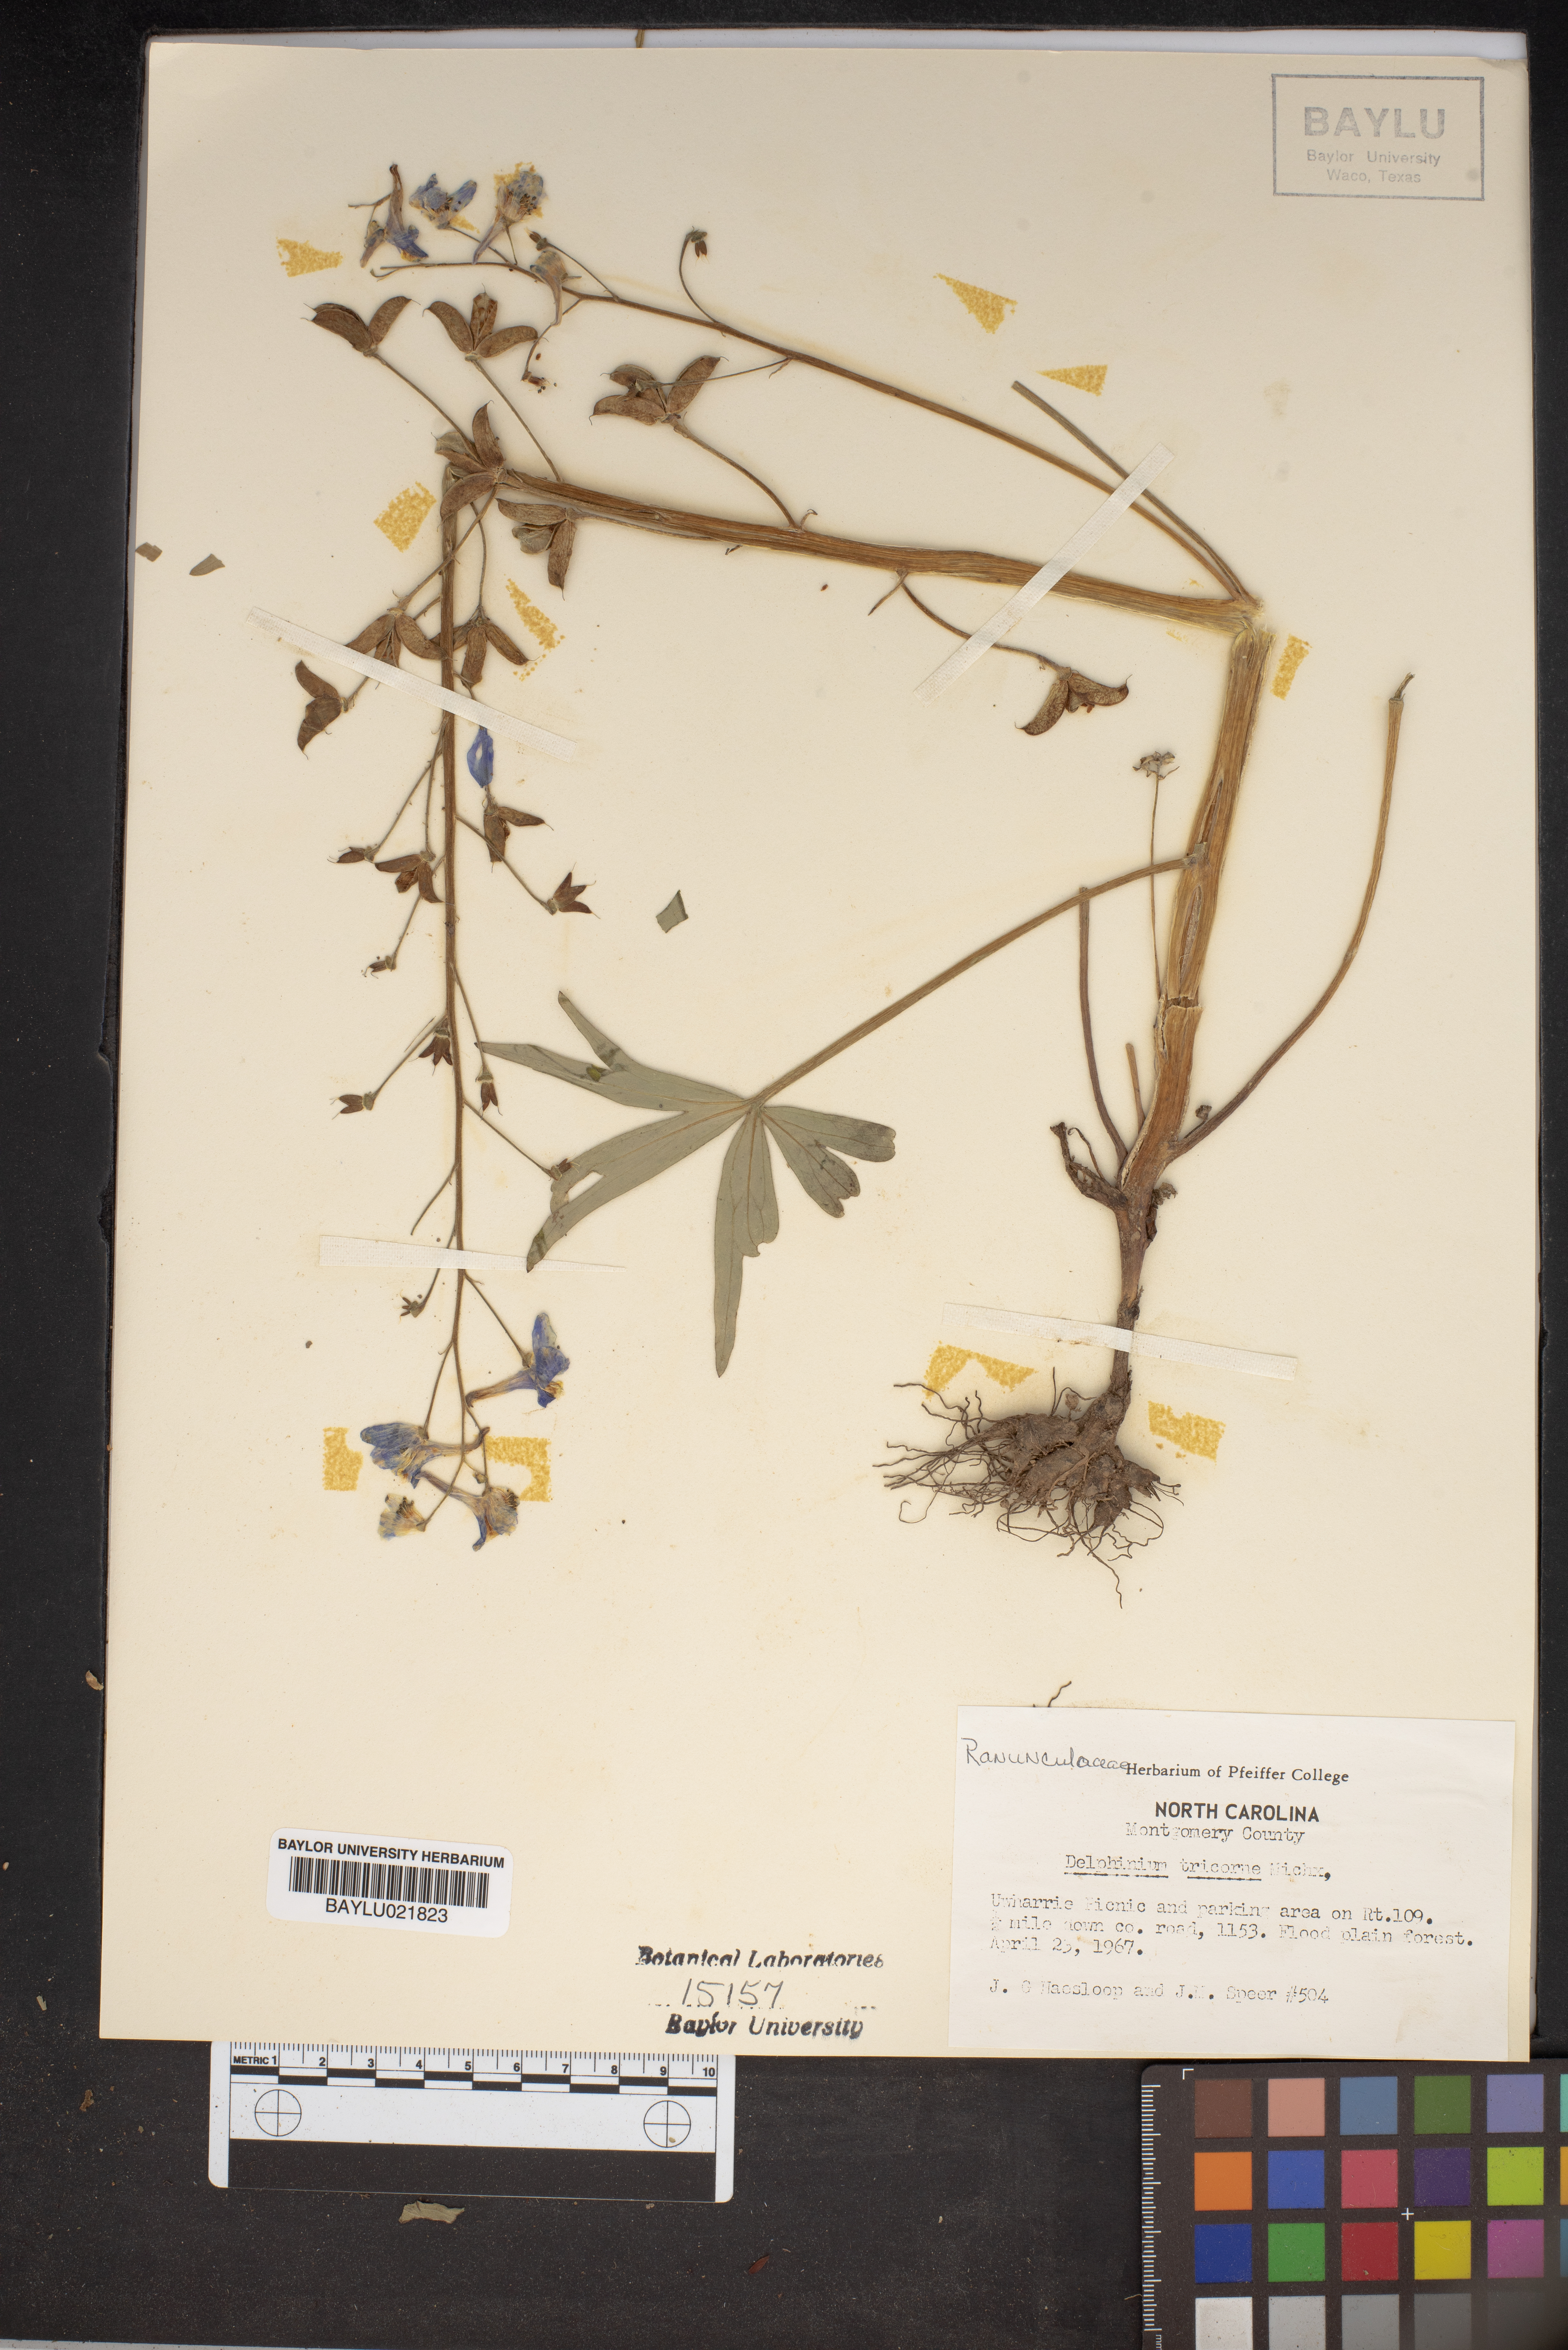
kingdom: Plantae
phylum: Tracheophyta
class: Magnoliopsida
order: Ranunculales
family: Ranunculaceae
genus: Delphinium
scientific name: Delphinium tricorne
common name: Dwarf larkspur
